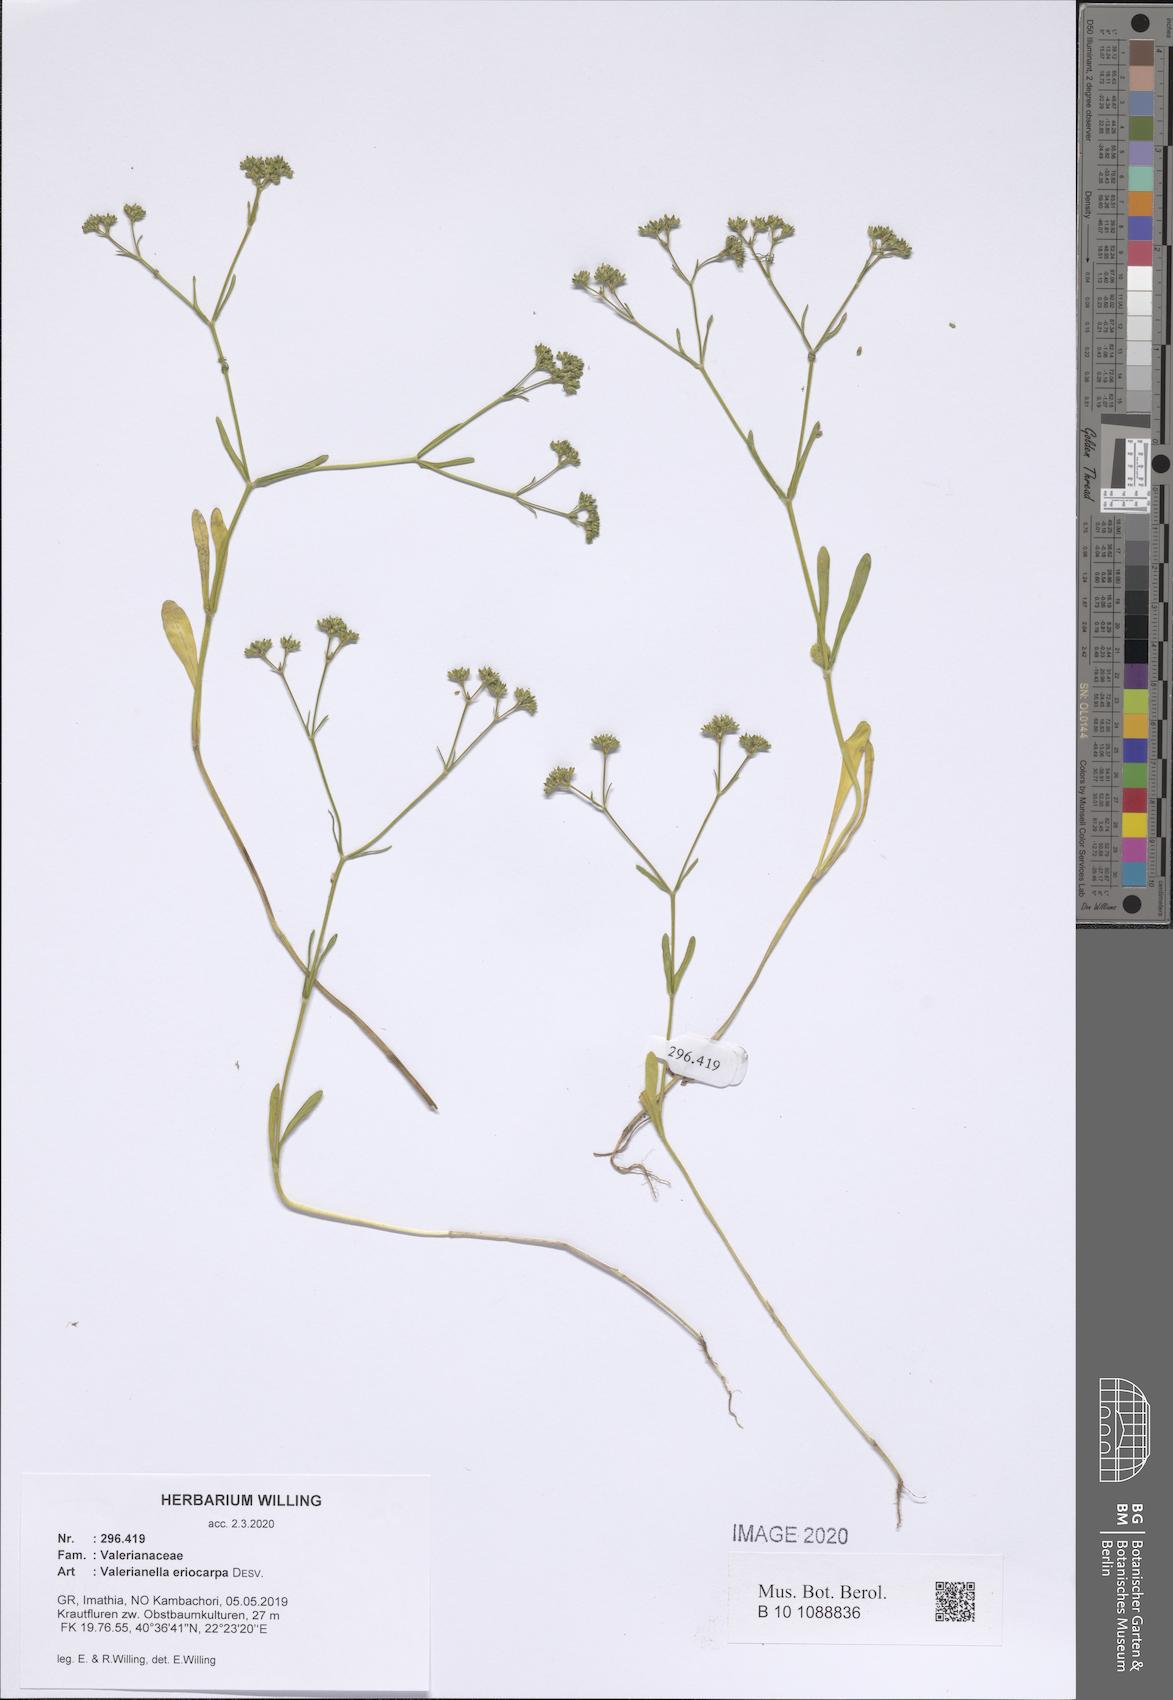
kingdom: Plantae
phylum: Tracheophyta
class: Magnoliopsida
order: Dipsacales
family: Caprifoliaceae
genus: Valerianella
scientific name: Valerianella eriocarpa
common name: Hairy-fruited cornsalad
